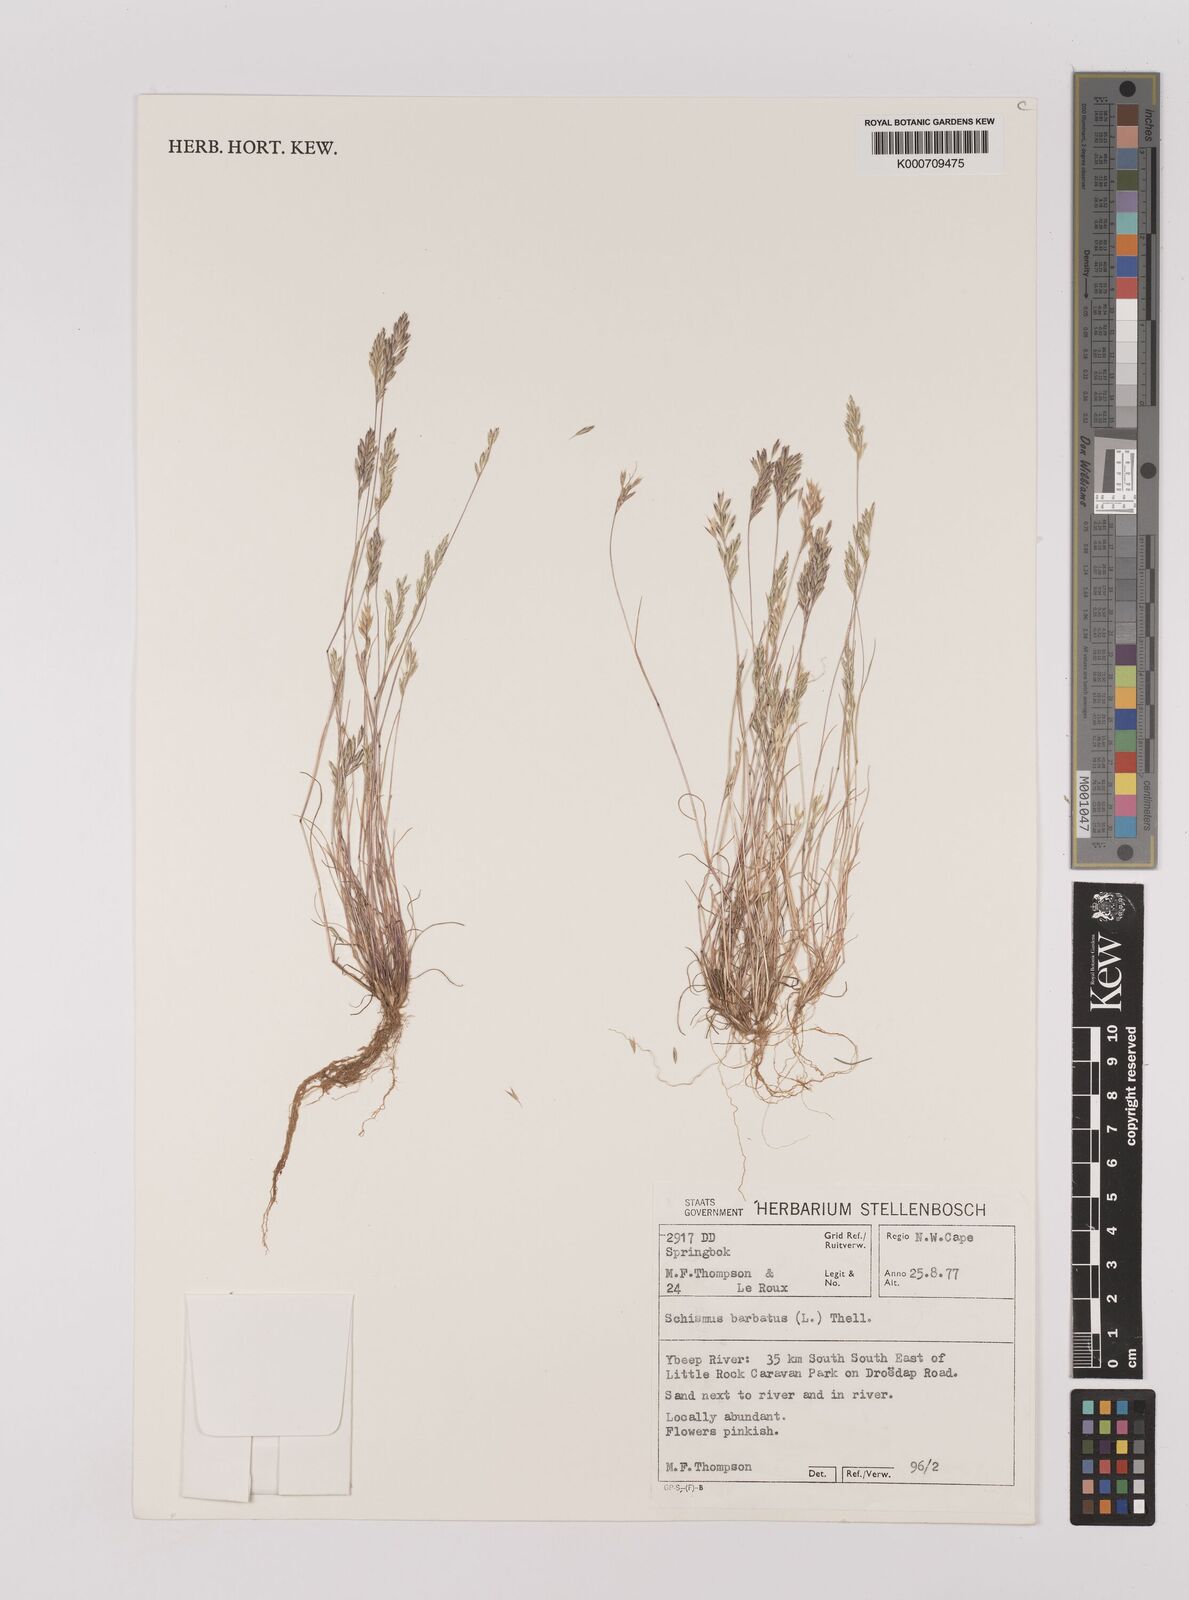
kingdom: Plantae
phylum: Tracheophyta
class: Liliopsida
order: Poales
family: Poaceae
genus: Schismus
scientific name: Schismus barbatus
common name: Kelch-grass
